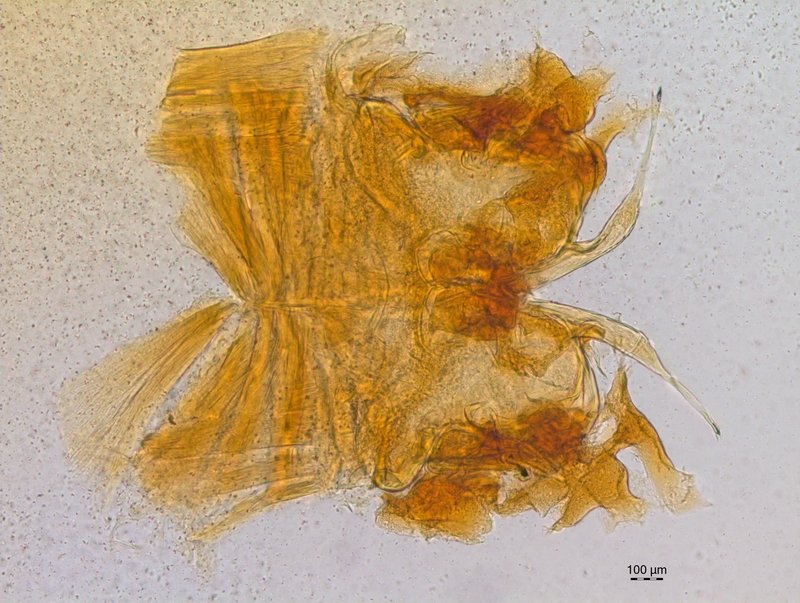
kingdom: Animalia
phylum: Arthropoda
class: Diplopoda
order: Chordeumatida
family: Craspedosomatidae
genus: Craspedosoma
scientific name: Craspedosoma rawlinsii
